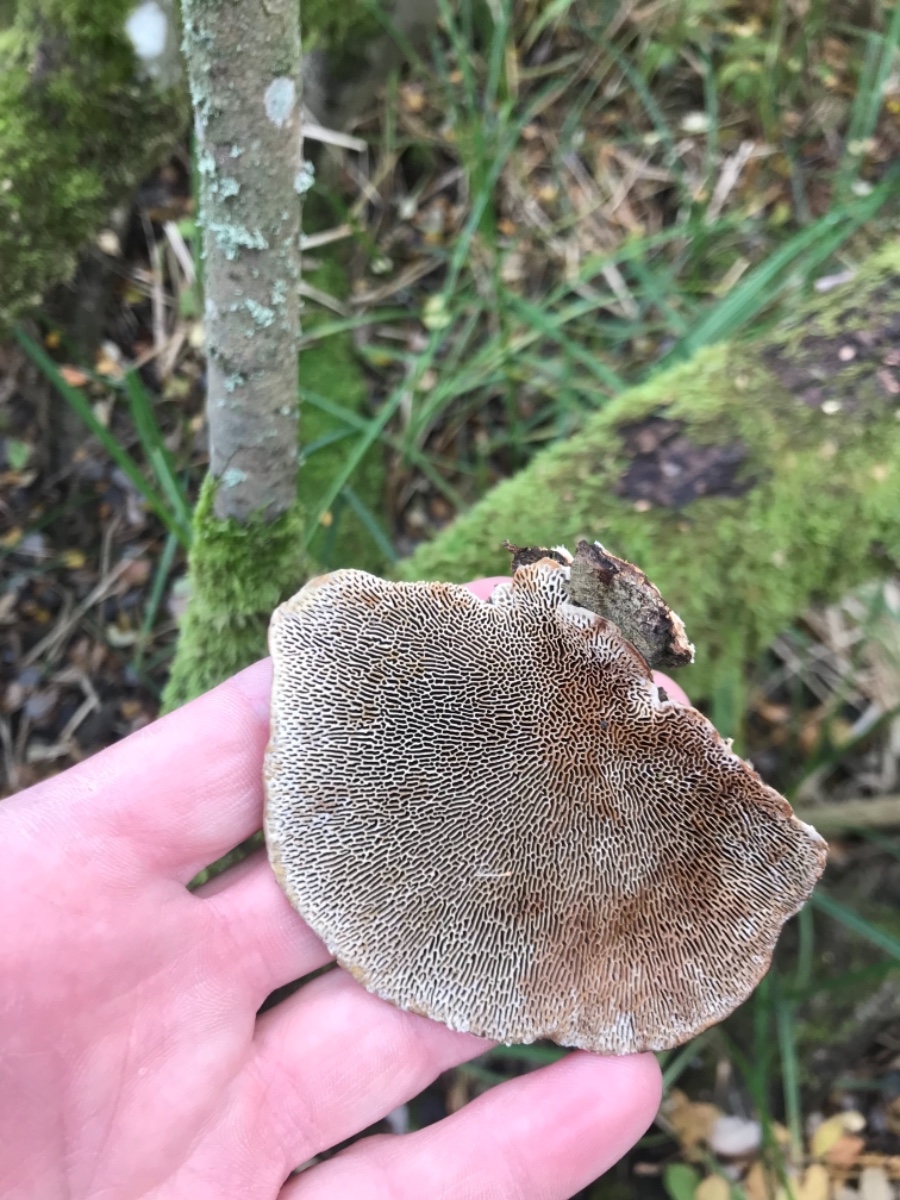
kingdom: Fungi
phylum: Basidiomycota
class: Agaricomycetes
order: Polyporales
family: Polyporaceae
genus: Daedaleopsis
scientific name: Daedaleopsis confragosa
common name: rødmende læderporesvamp
